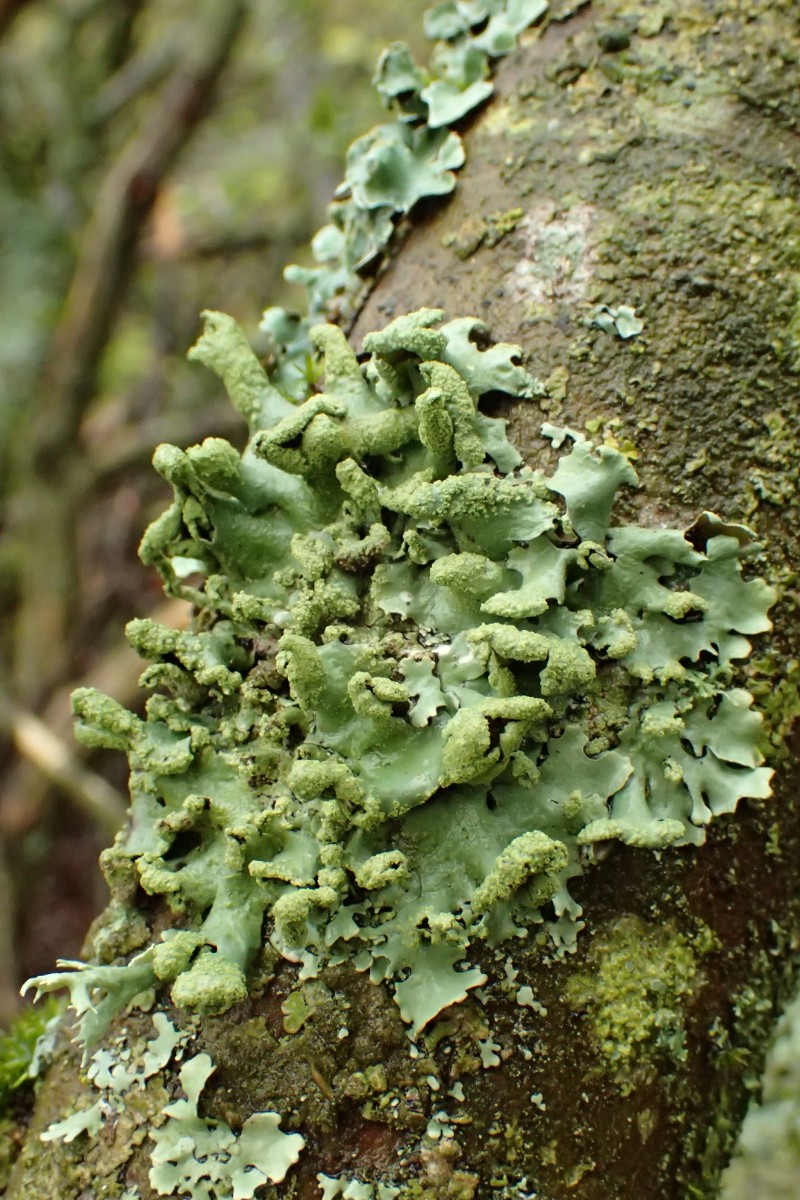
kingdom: Fungi
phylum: Ascomycota
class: Lecanoromycetes
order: Lecanorales
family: Parmeliaceae
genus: Hypotrachyna
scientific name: Hypotrachyna revoluta
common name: bleggrå skållav
